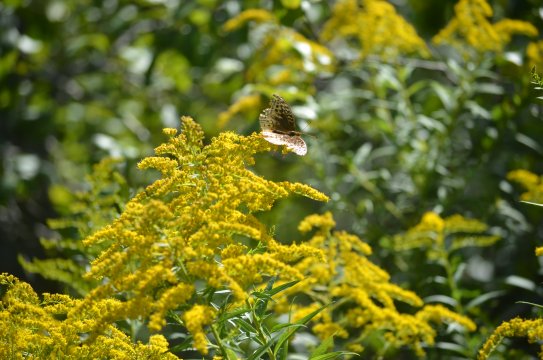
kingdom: Animalia
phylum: Arthropoda
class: Insecta
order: Lepidoptera
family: Nymphalidae
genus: Speyeria
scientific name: Speyeria cybele
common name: Great Spangled Fritillary
